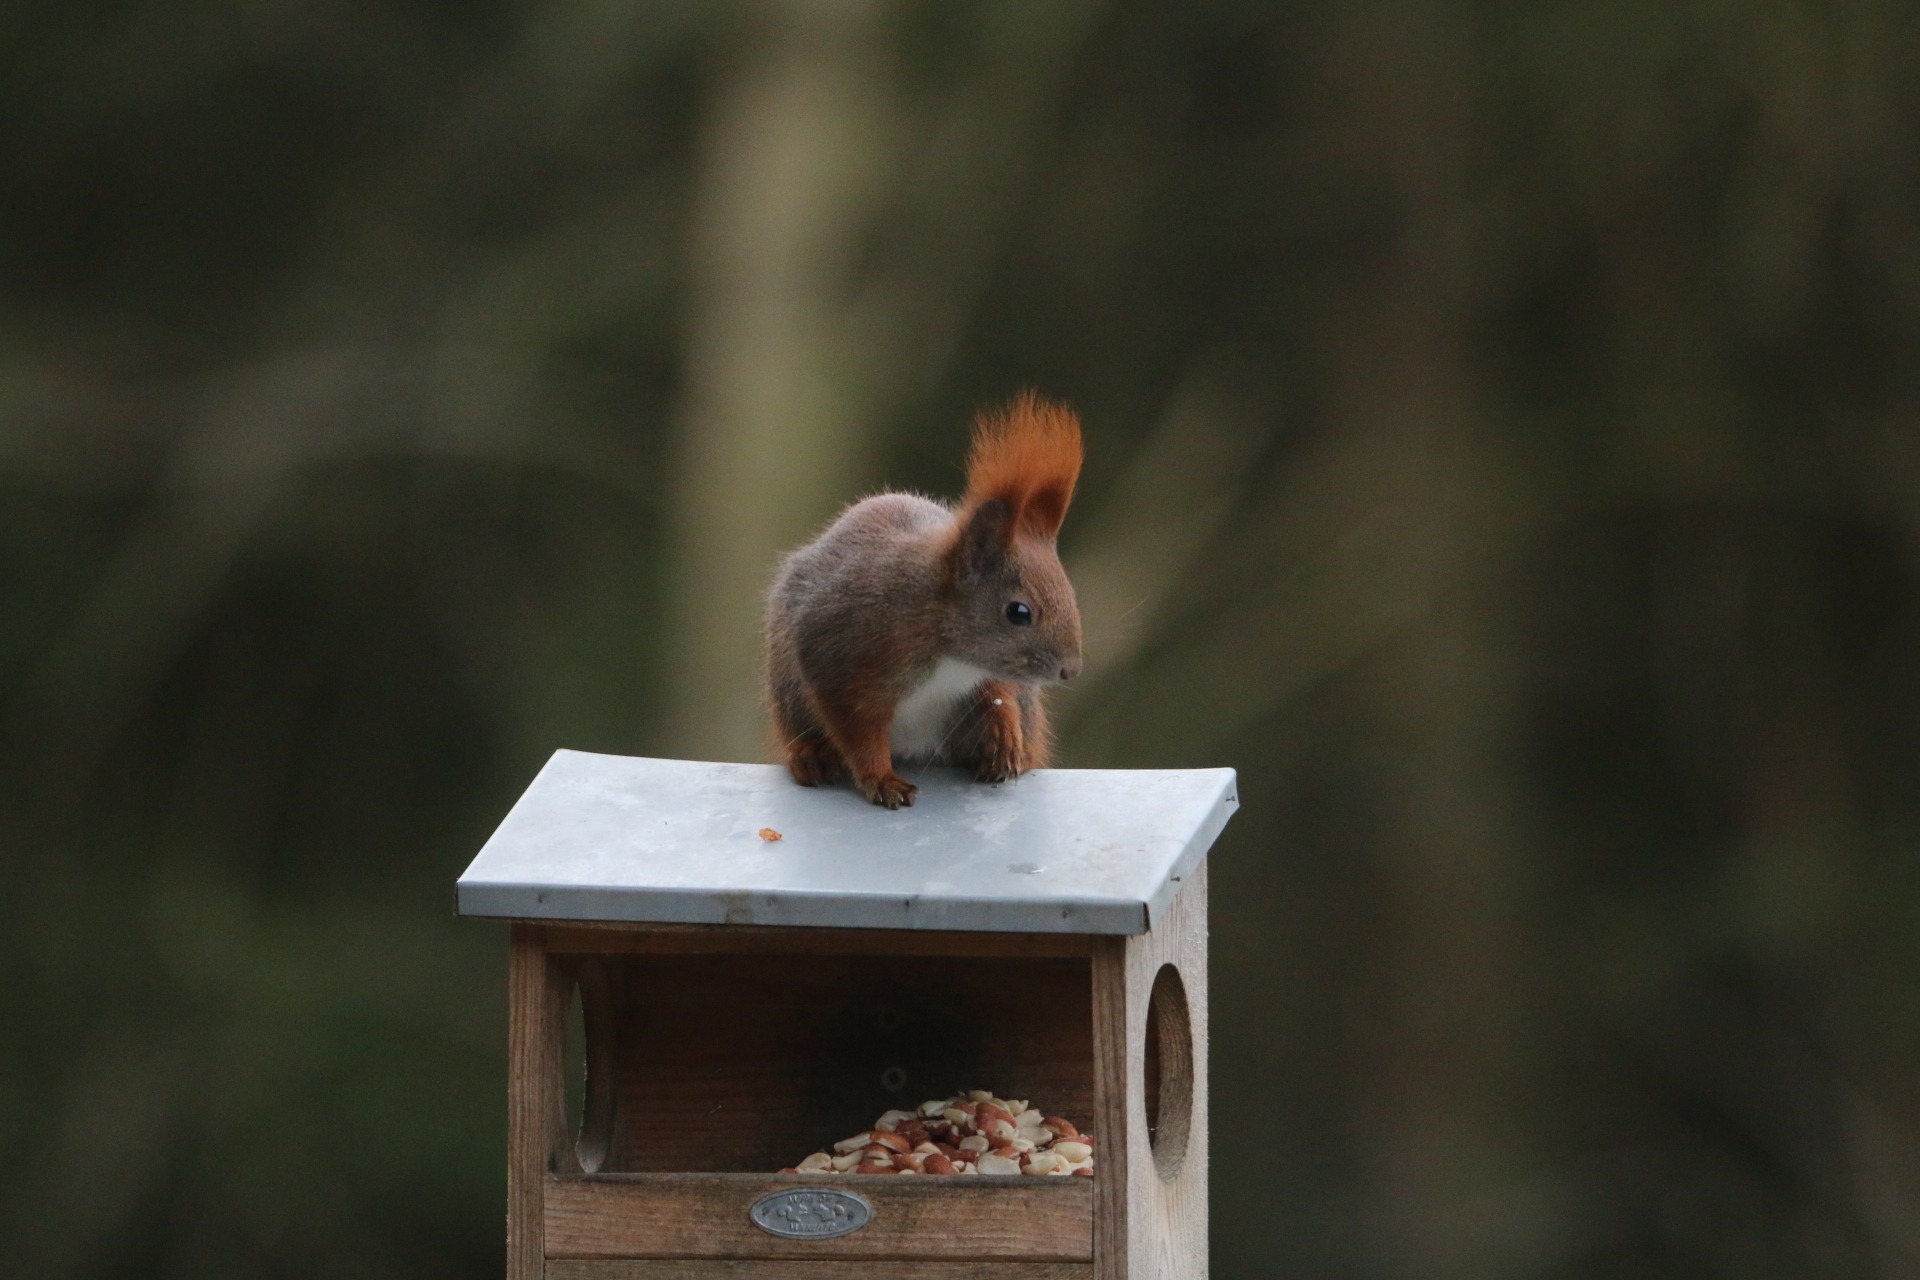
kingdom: Animalia
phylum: Chordata
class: Mammalia
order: Rodentia
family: Sciuridae
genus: Sciurus
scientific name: Sciurus vulgaris
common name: Egern
